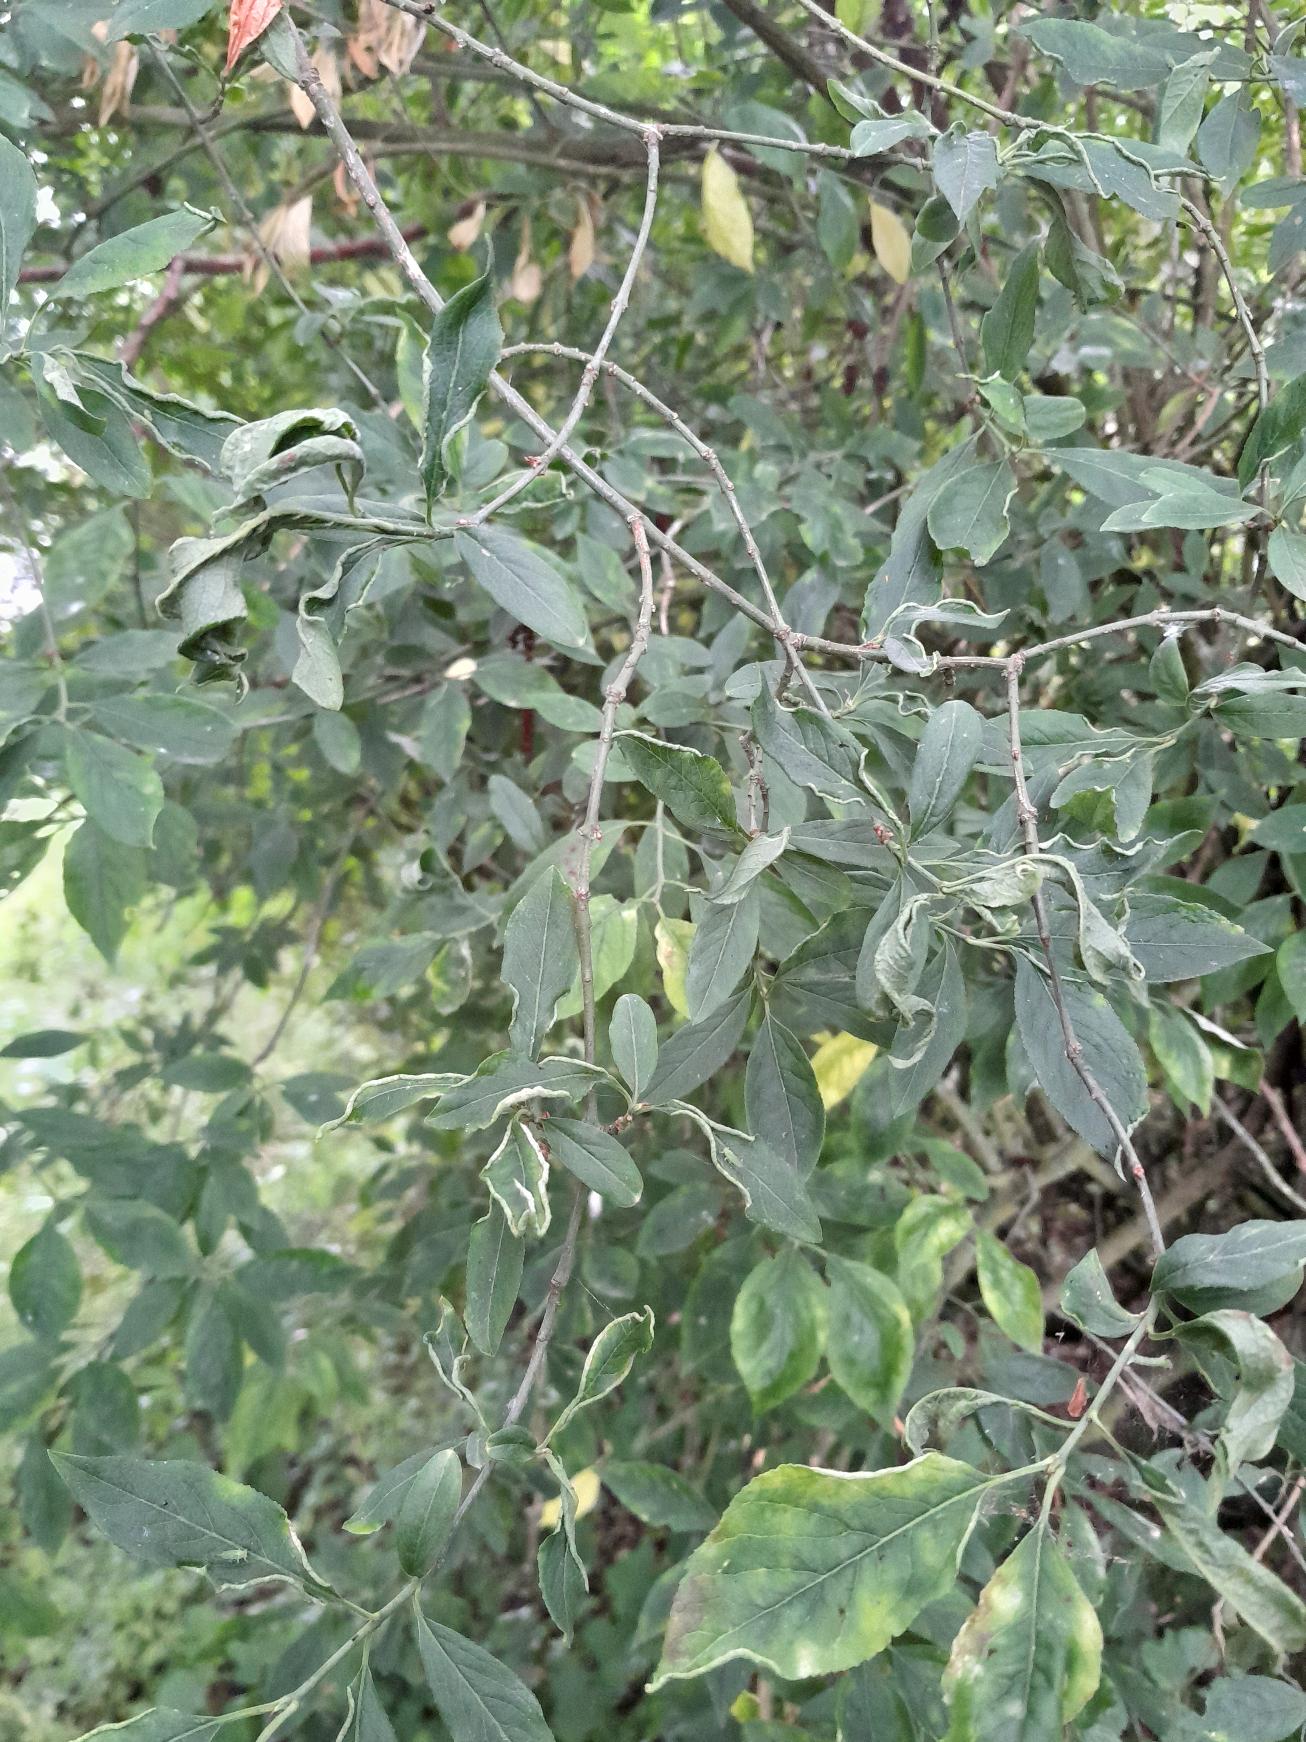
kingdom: Animalia
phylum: Arthropoda
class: Arachnida
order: Trombidiformes
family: Eriophyidae
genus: Stenacis
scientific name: Stenacis evonymi
